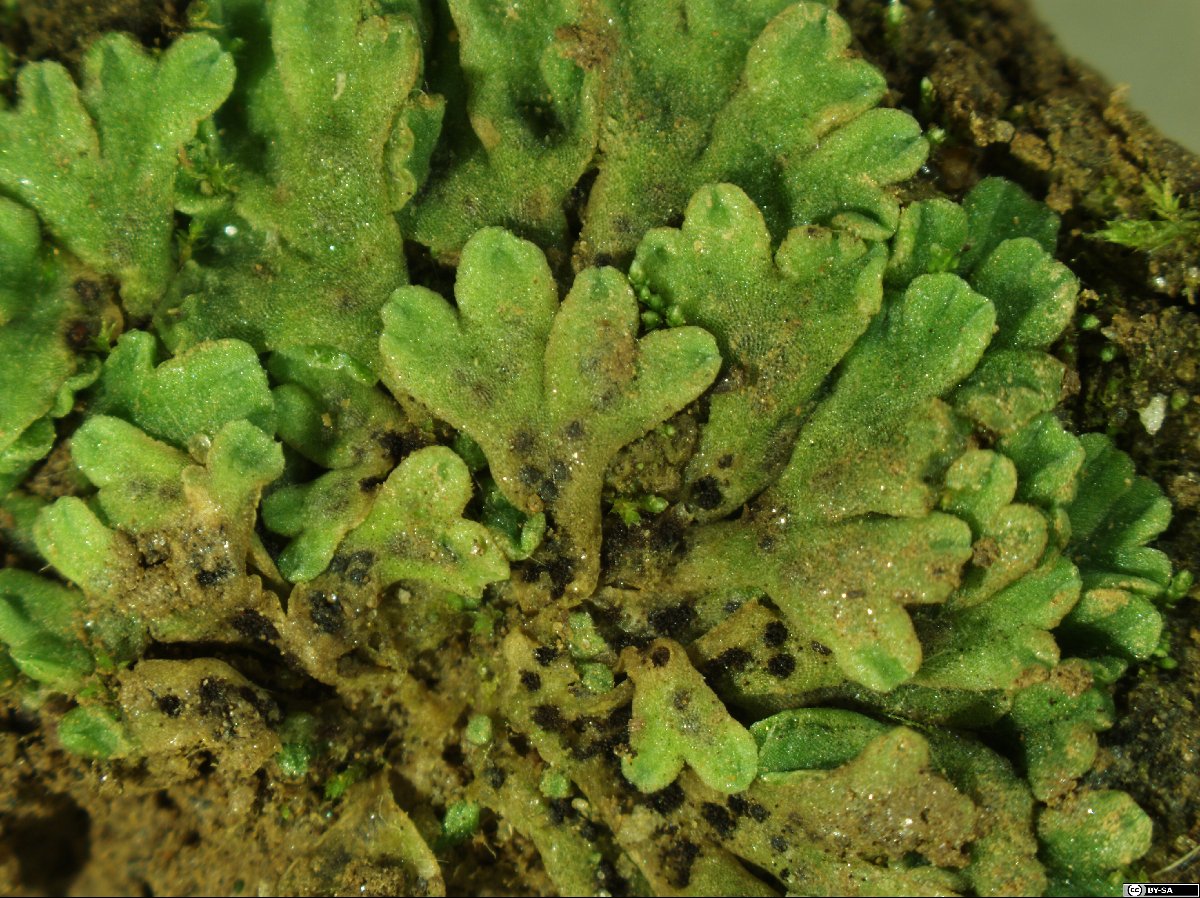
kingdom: Plantae
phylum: Marchantiophyta
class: Marchantiopsida
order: Marchantiales
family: Ricciaceae
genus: Riccia
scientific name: Riccia bifurca
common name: Lizard crystalwort
